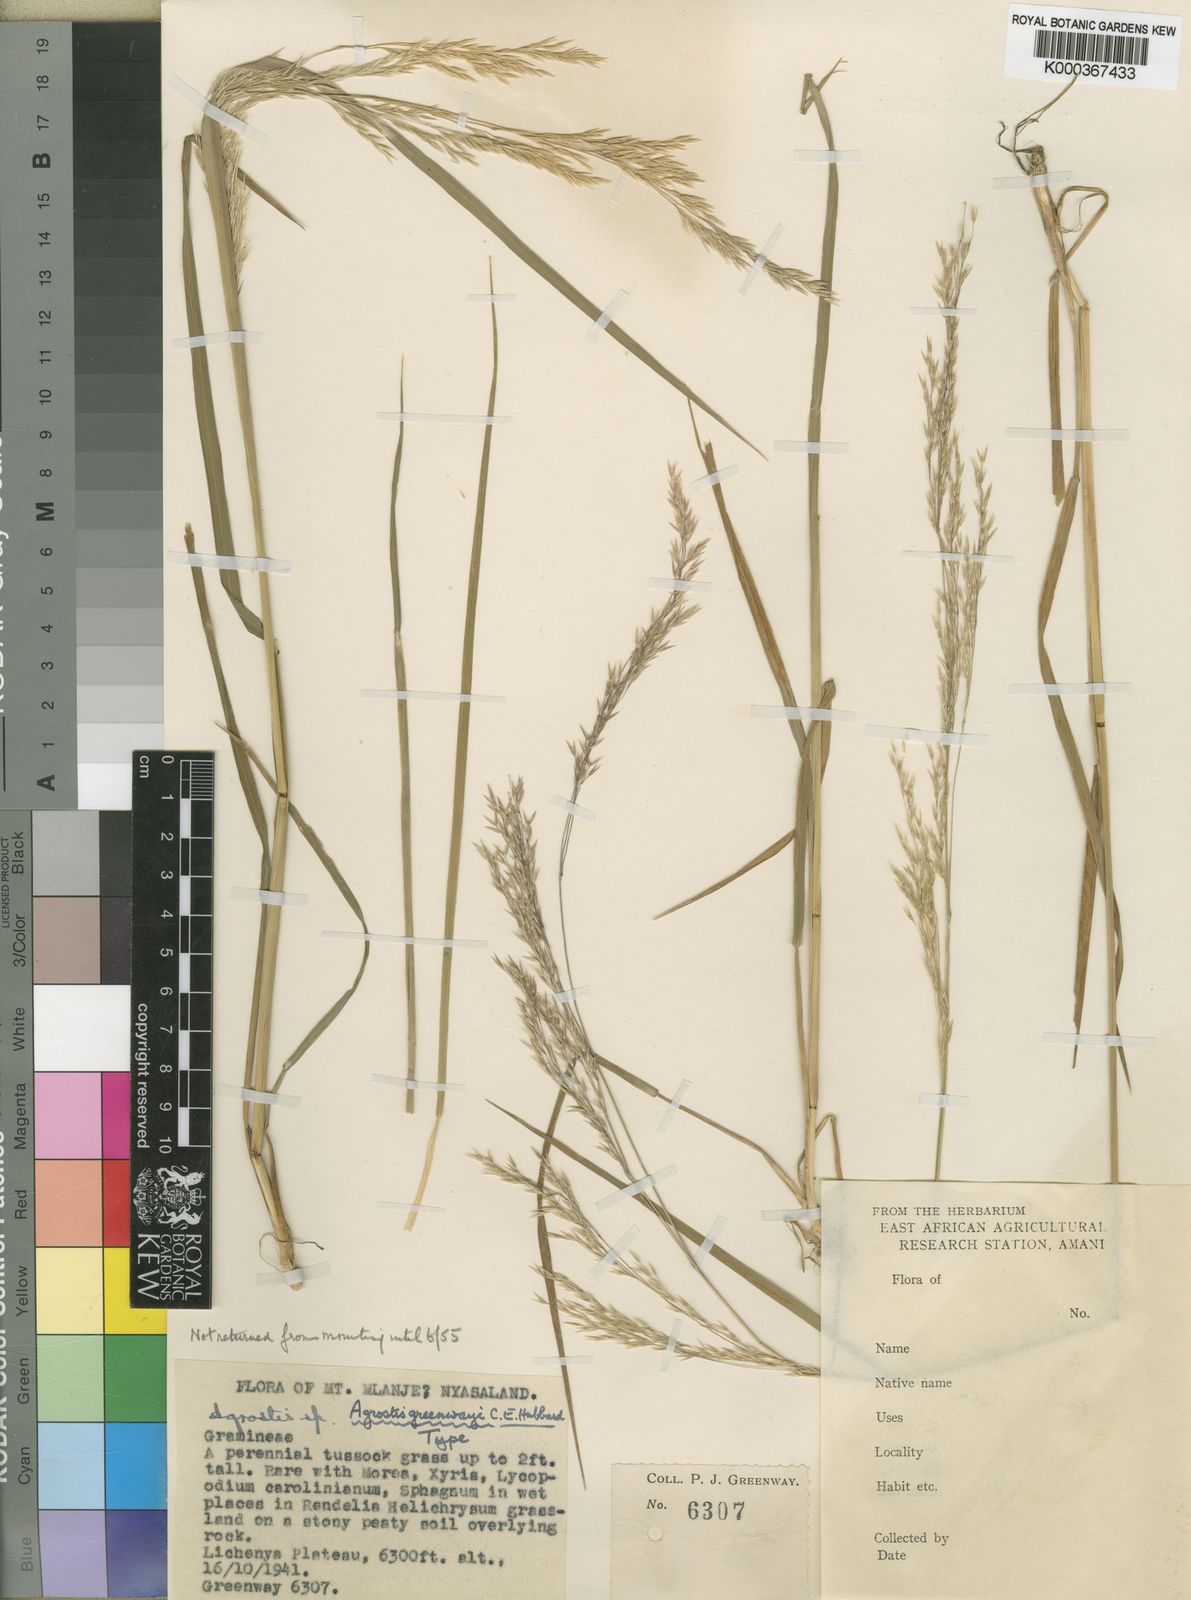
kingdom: Plantae
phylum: Tracheophyta
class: Liliopsida
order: Poales
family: Poaceae
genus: Agrostis
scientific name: Agrostis producta
